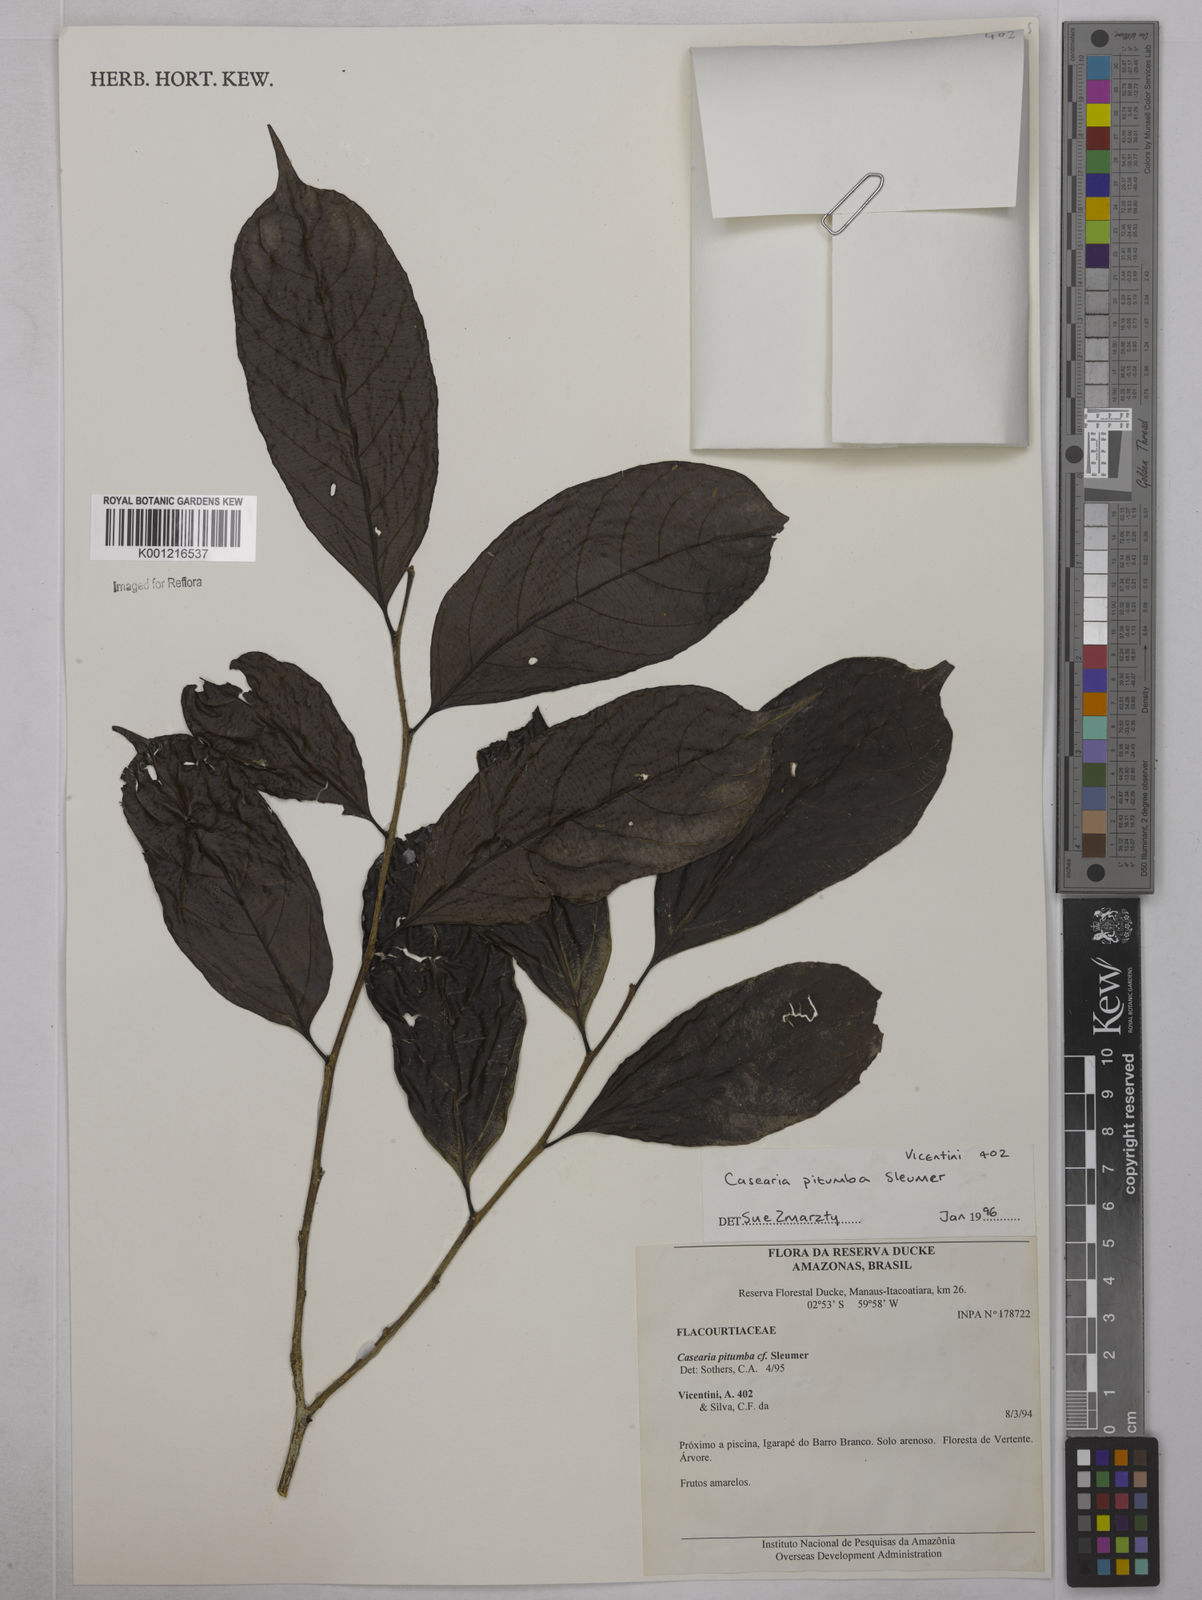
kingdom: Plantae
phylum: Tracheophyta
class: Magnoliopsida
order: Malpighiales
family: Salicaceae
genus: Casearia
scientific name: Casearia pitumba
